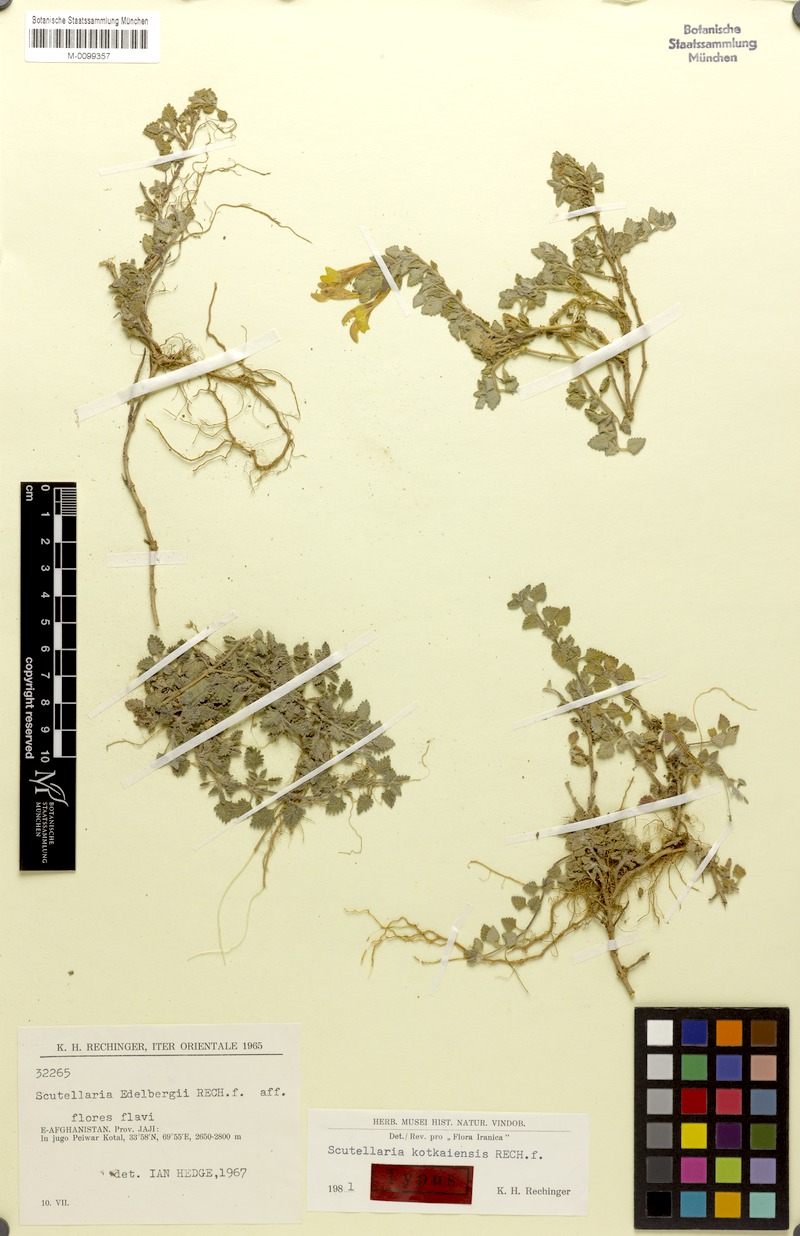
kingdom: Plantae
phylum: Tracheophyta
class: Magnoliopsida
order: Lamiales
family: Lamiaceae
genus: Scutellaria
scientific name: Scutellaria kotkaiensis
